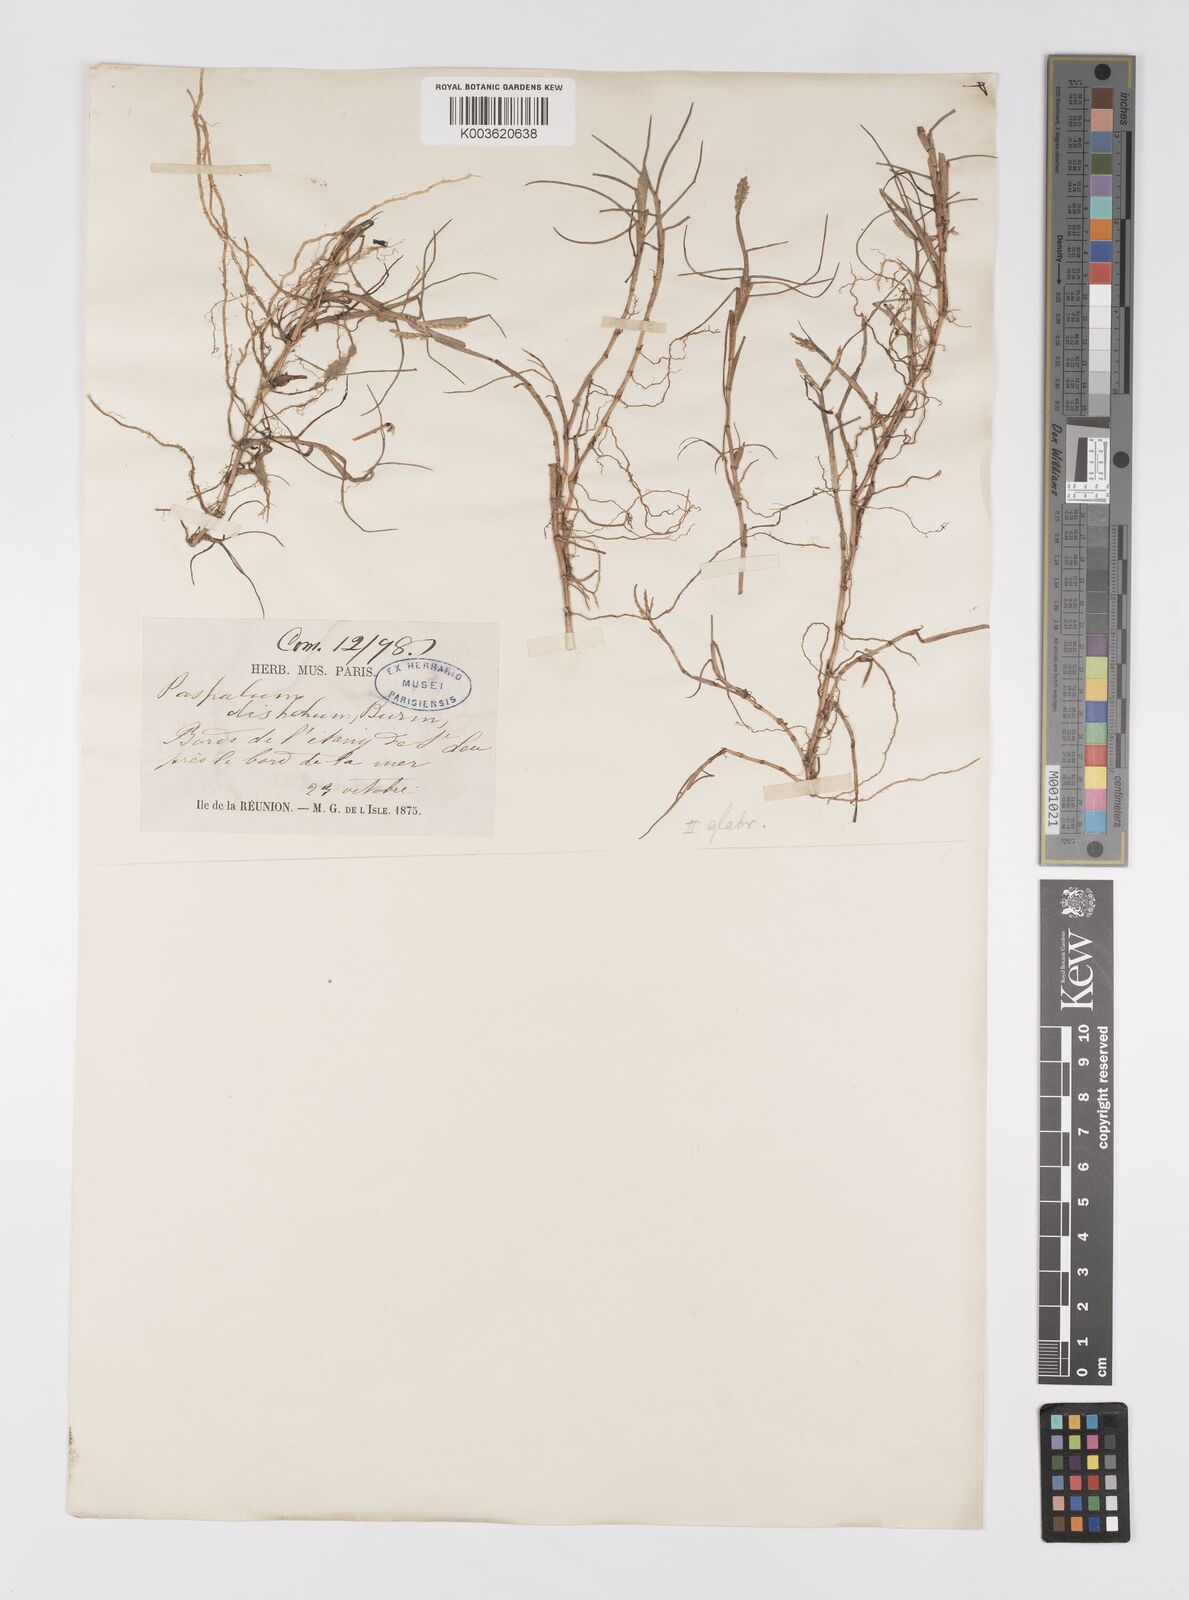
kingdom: Plantae
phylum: Tracheophyta
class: Liliopsida
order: Poales
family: Poaceae
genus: Paspalum
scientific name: Paspalum vaginatum
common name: Seashore paspalum
